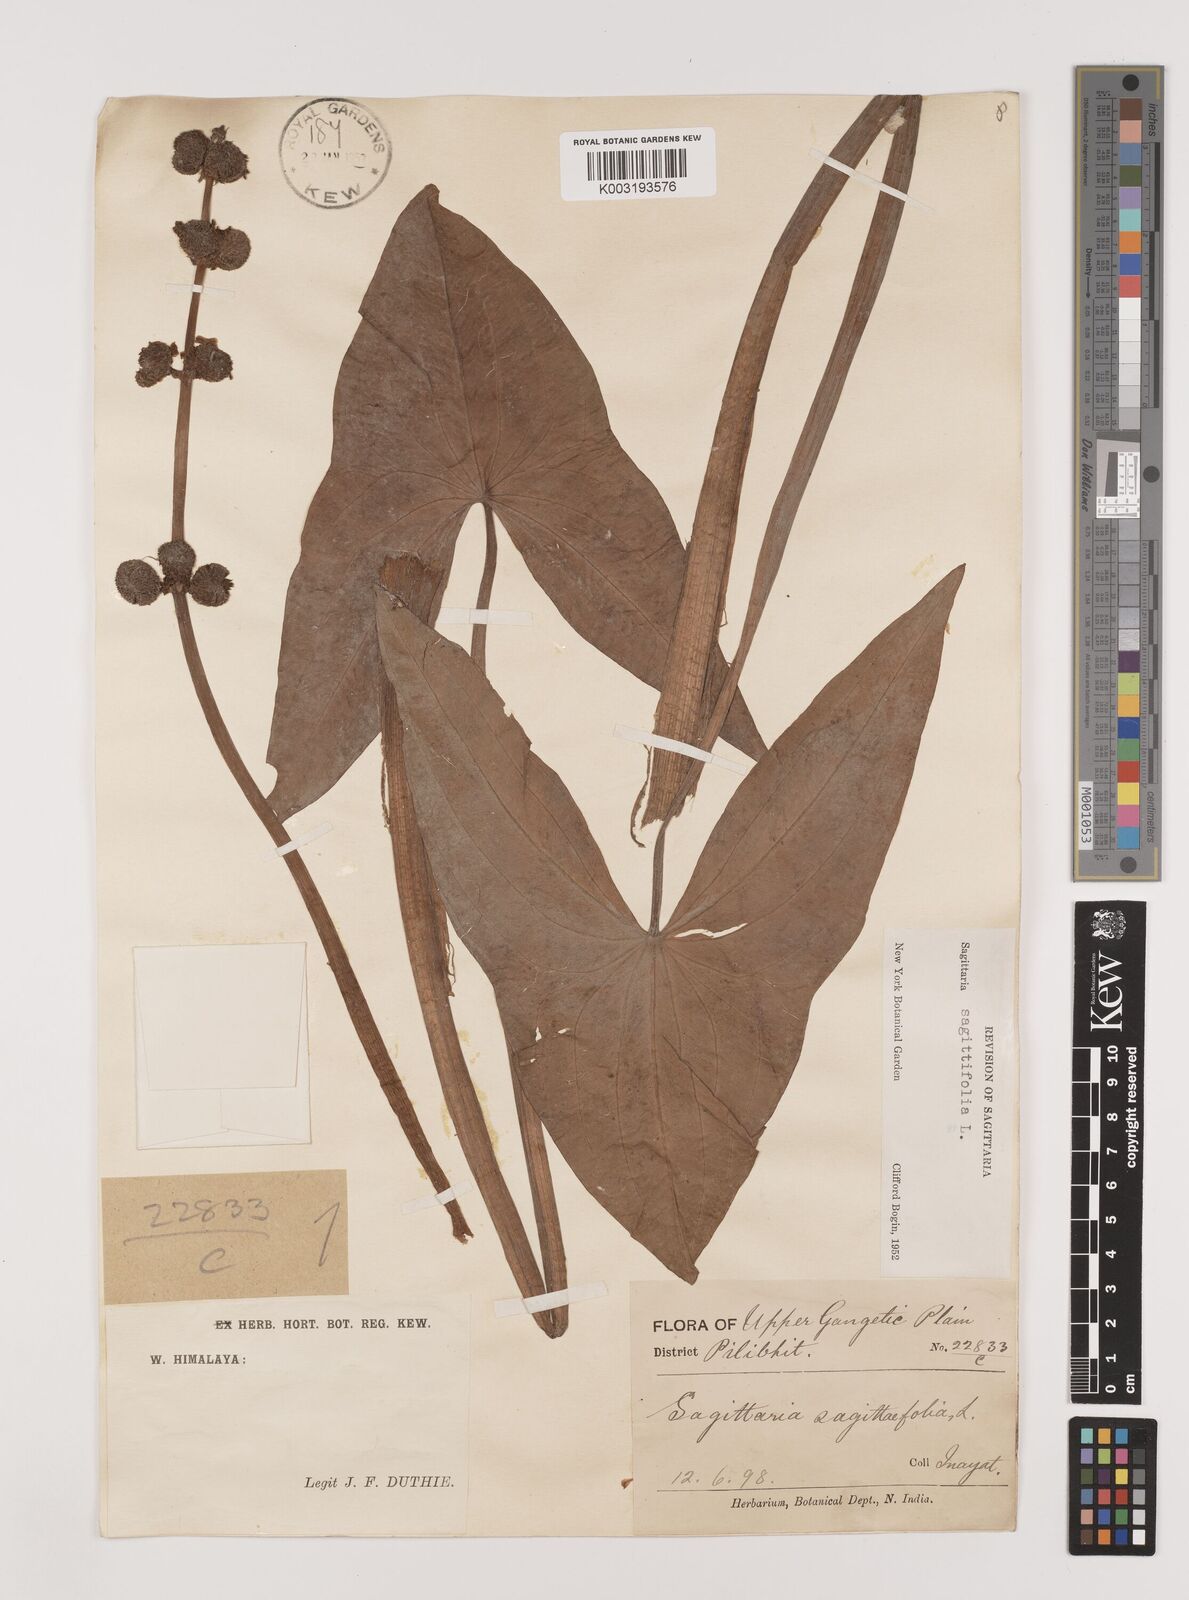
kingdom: Plantae
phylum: Tracheophyta
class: Liliopsida
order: Alismatales
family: Alismataceae
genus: Sagittaria
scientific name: Sagittaria sagittifolia
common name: Arrowhead
